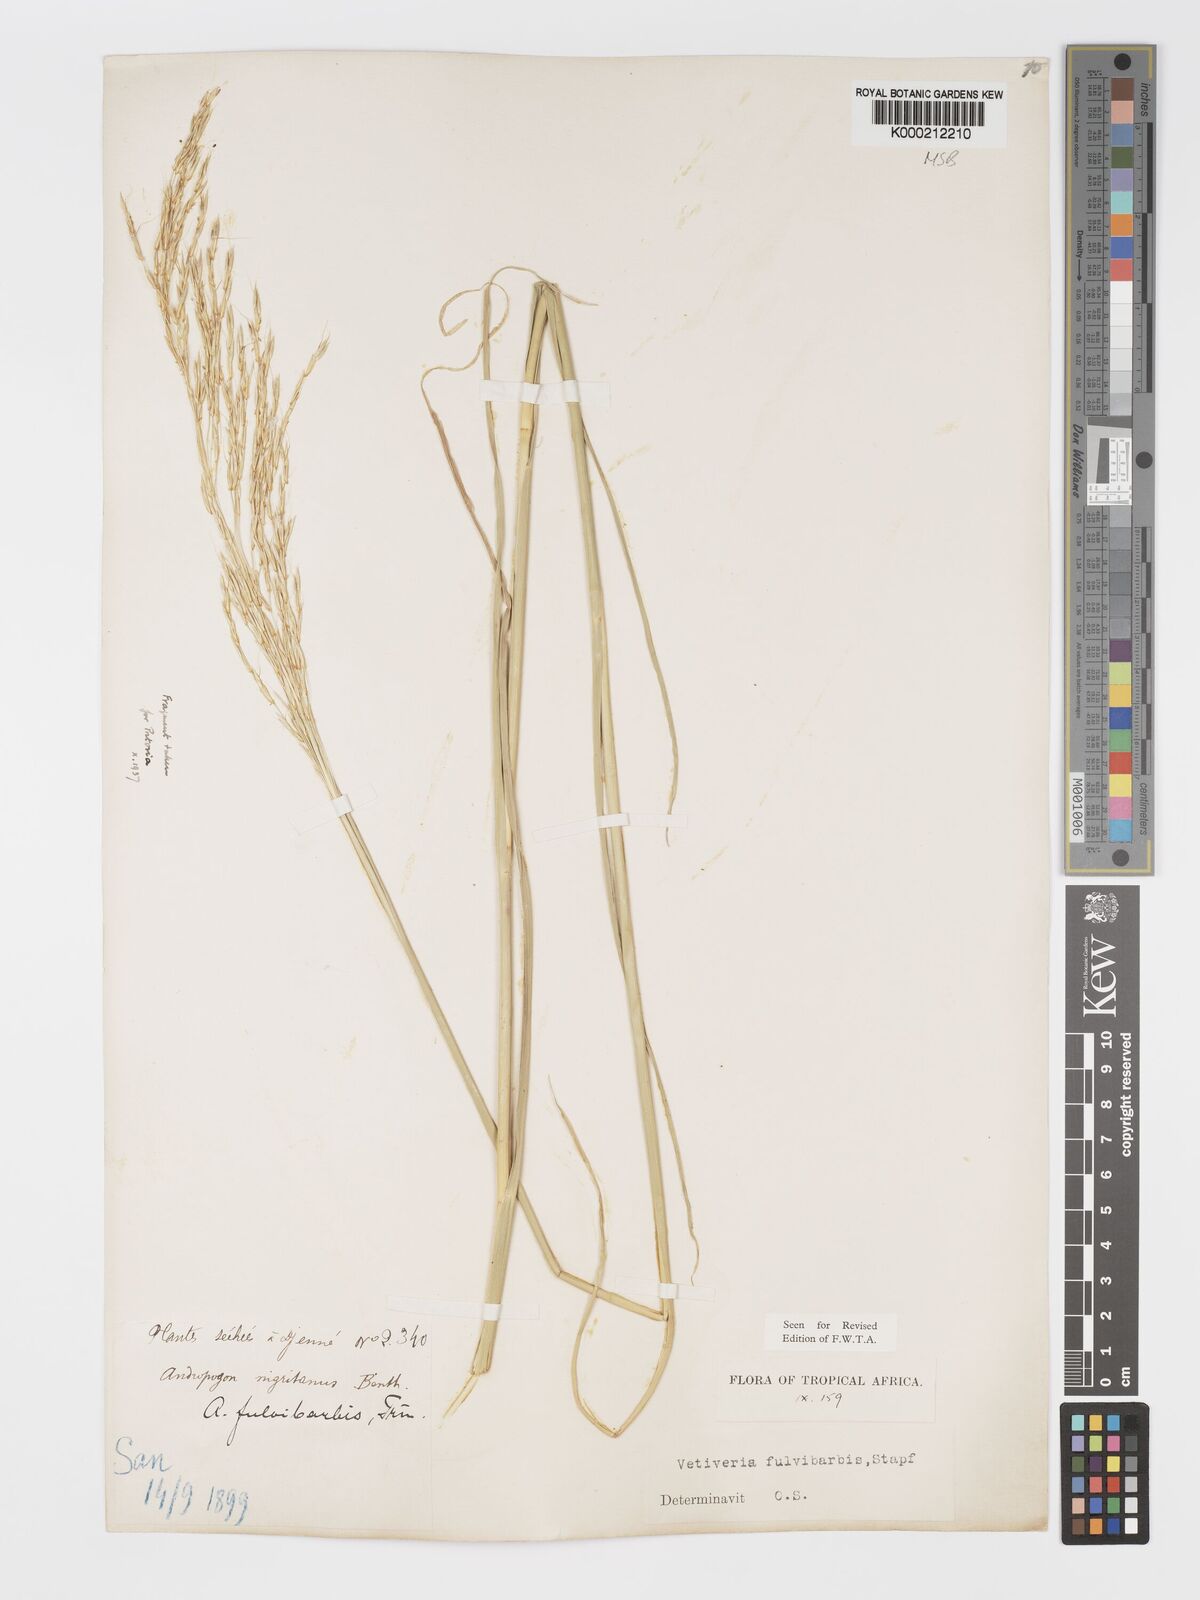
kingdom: Plantae
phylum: Tracheophyta
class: Liliopsida
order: Poales
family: Poaceae
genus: Chrysopogon
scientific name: Chrysopogon fulvibarbis
